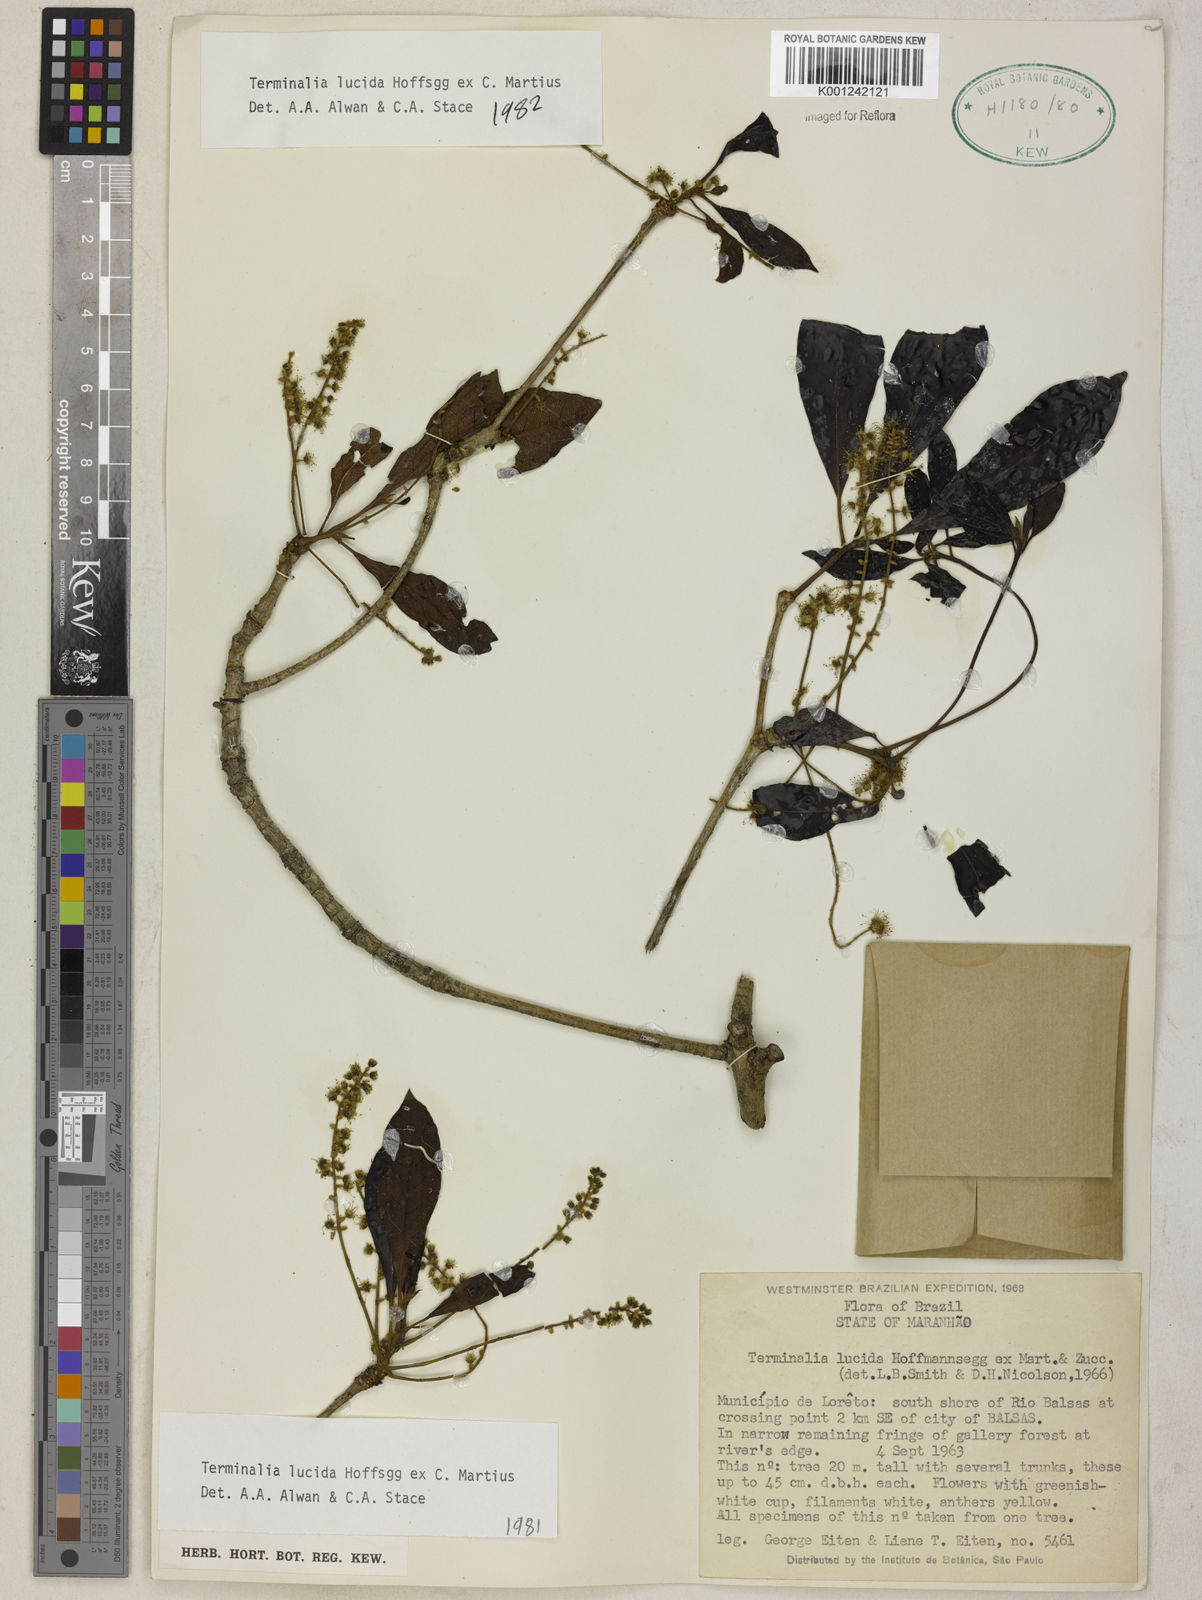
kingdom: Plantae
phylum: Tracheophyta
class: Magnoliopsida
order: Myrtales
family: Combretaceae
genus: Terminalia
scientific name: Terminalia lucida
